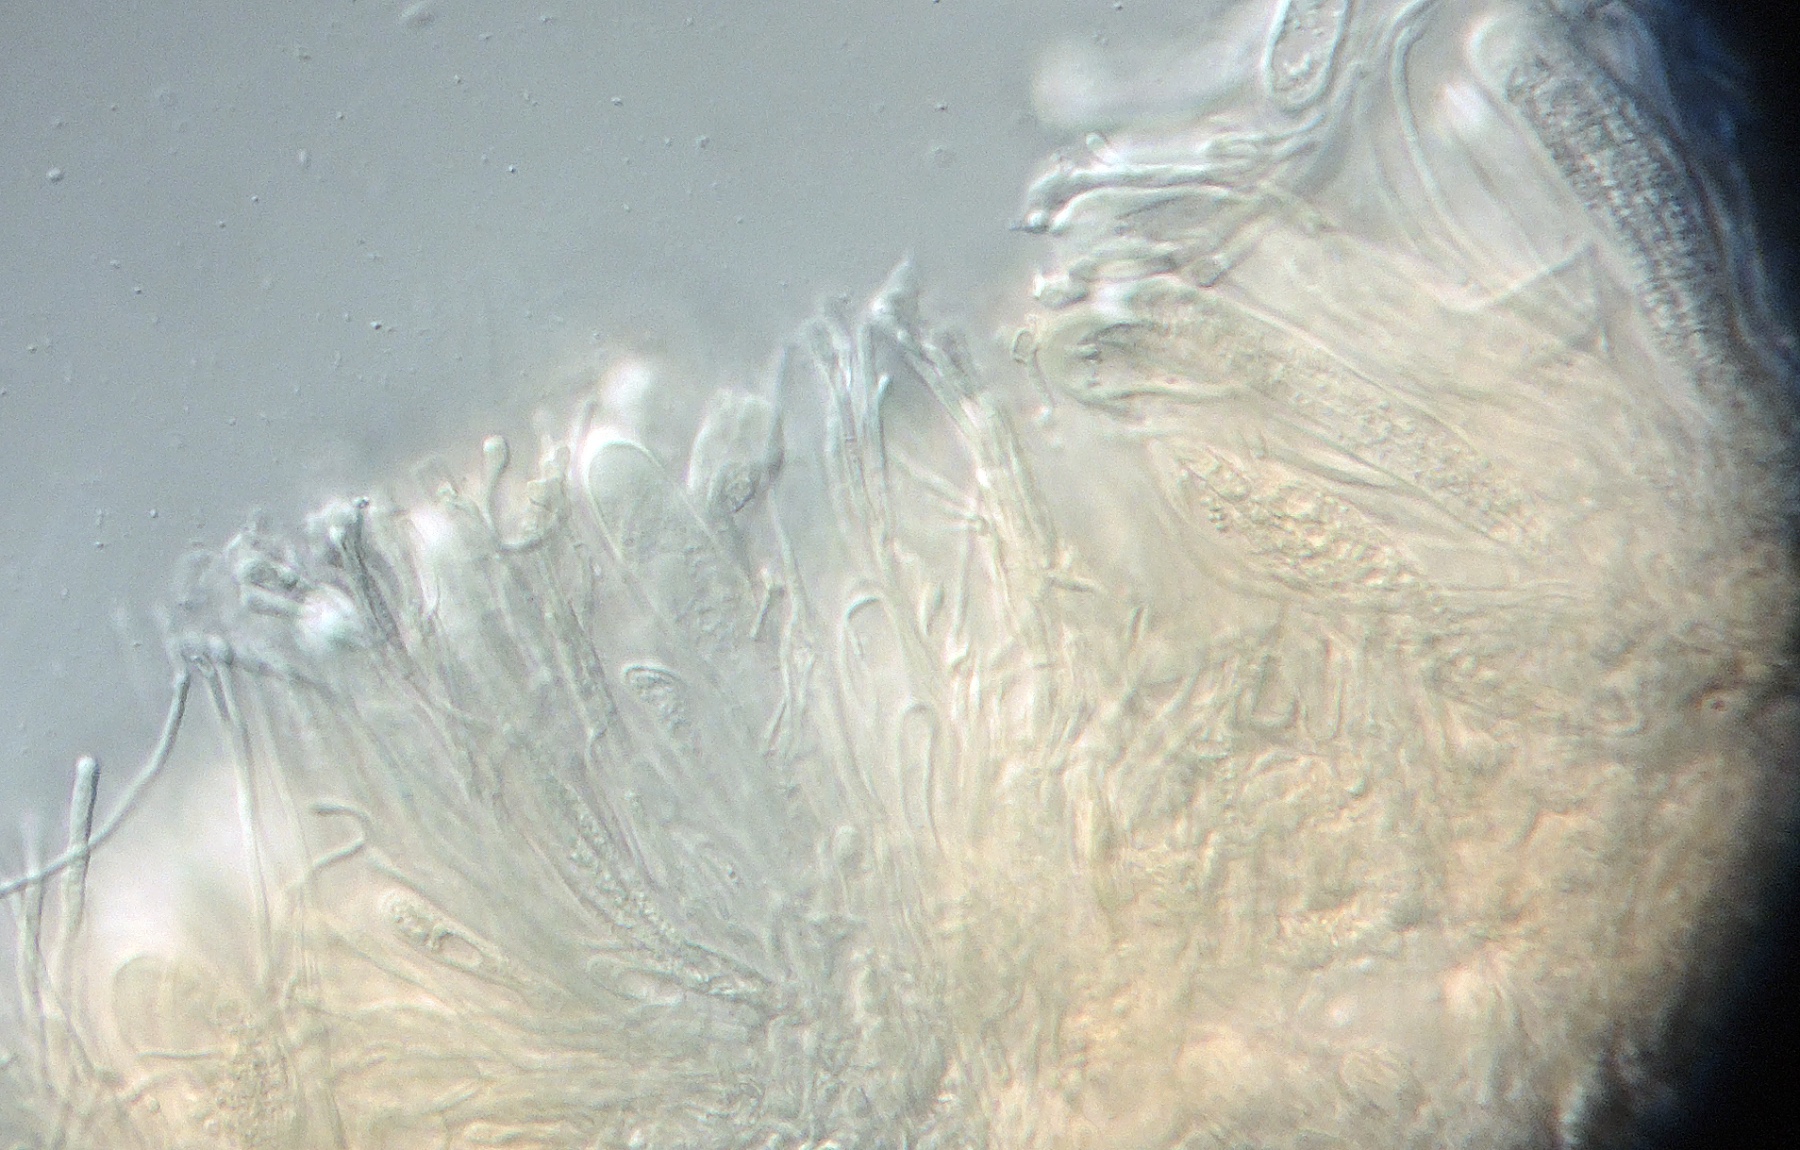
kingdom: Fungi
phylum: Ascomycota
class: Lecanoromycetes
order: Lecanorales
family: Ramalinaceae
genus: Bacidia
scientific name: Bacidia rubella
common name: rødbrun tensporelav
